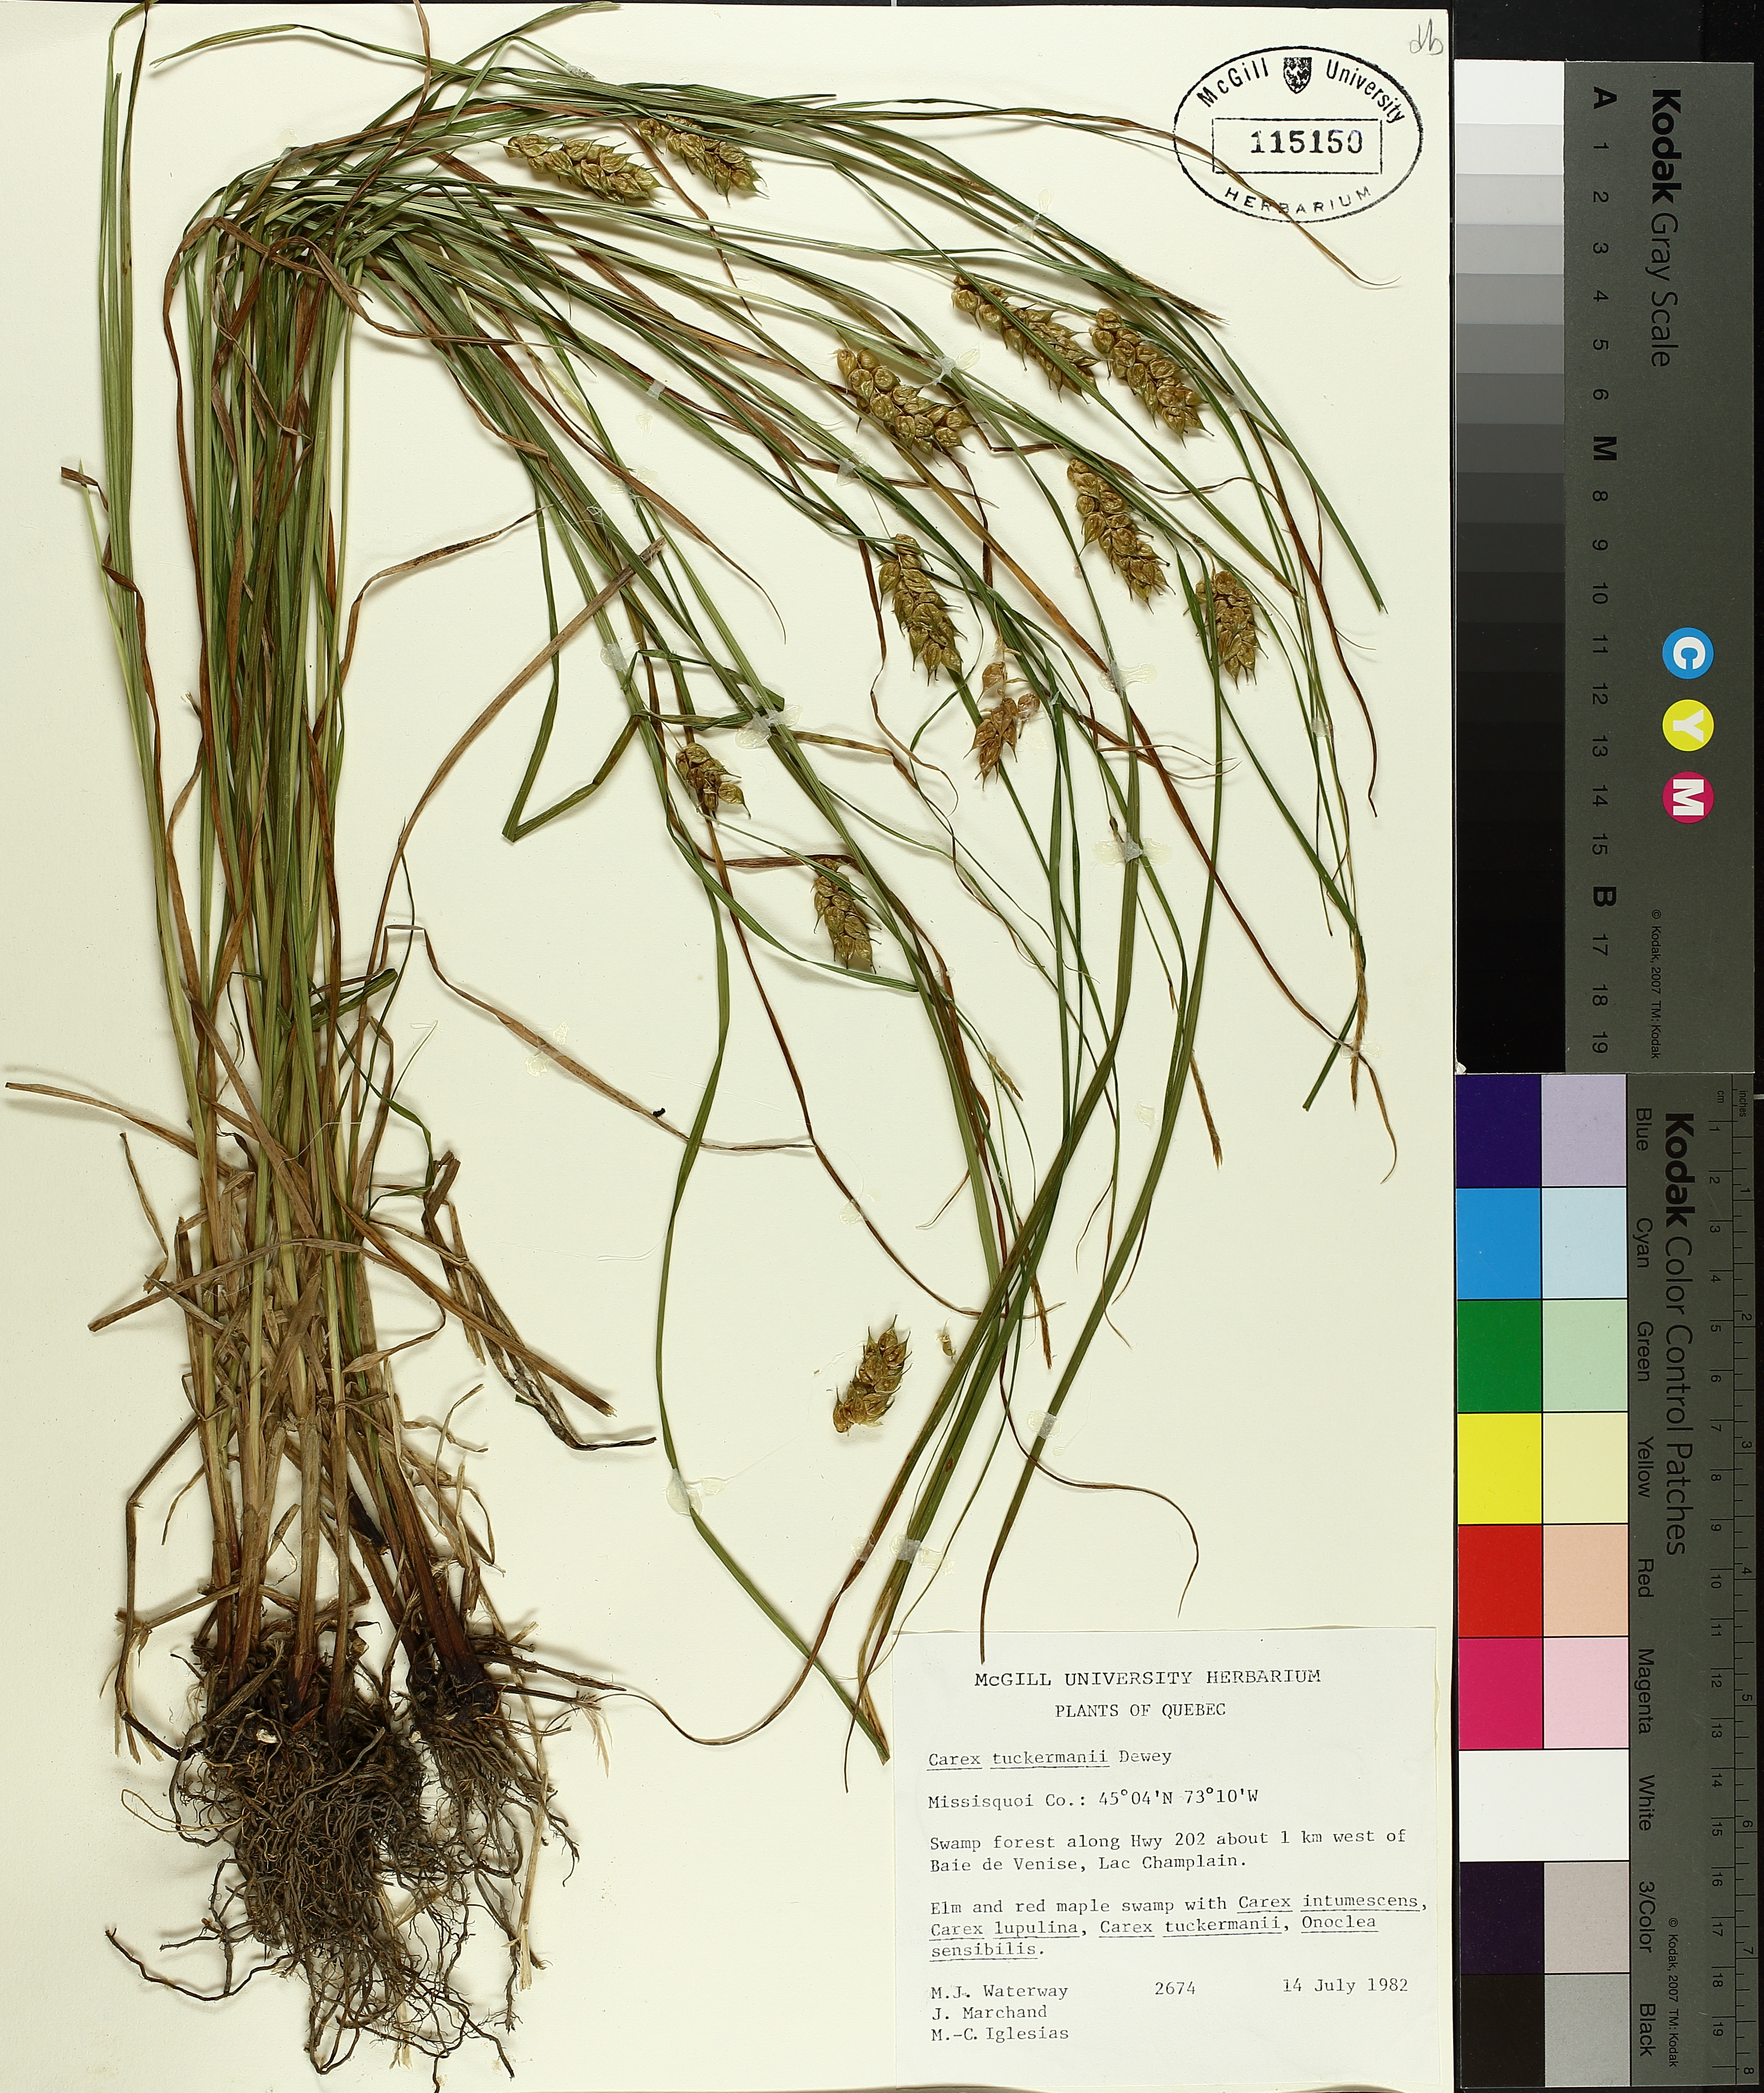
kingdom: Plantae
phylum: Tracheophyta
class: Liliopsida
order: Poales
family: Cyperaceae
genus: Carex
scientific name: Carex tuckermanii
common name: Tuckerman's sedge
